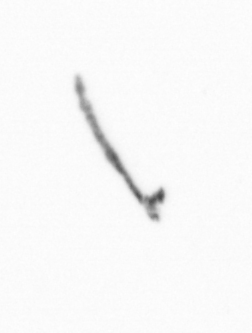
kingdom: Chromista
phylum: Ochrophyta
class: Bacillariophyceae
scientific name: Bacillariophyceae
